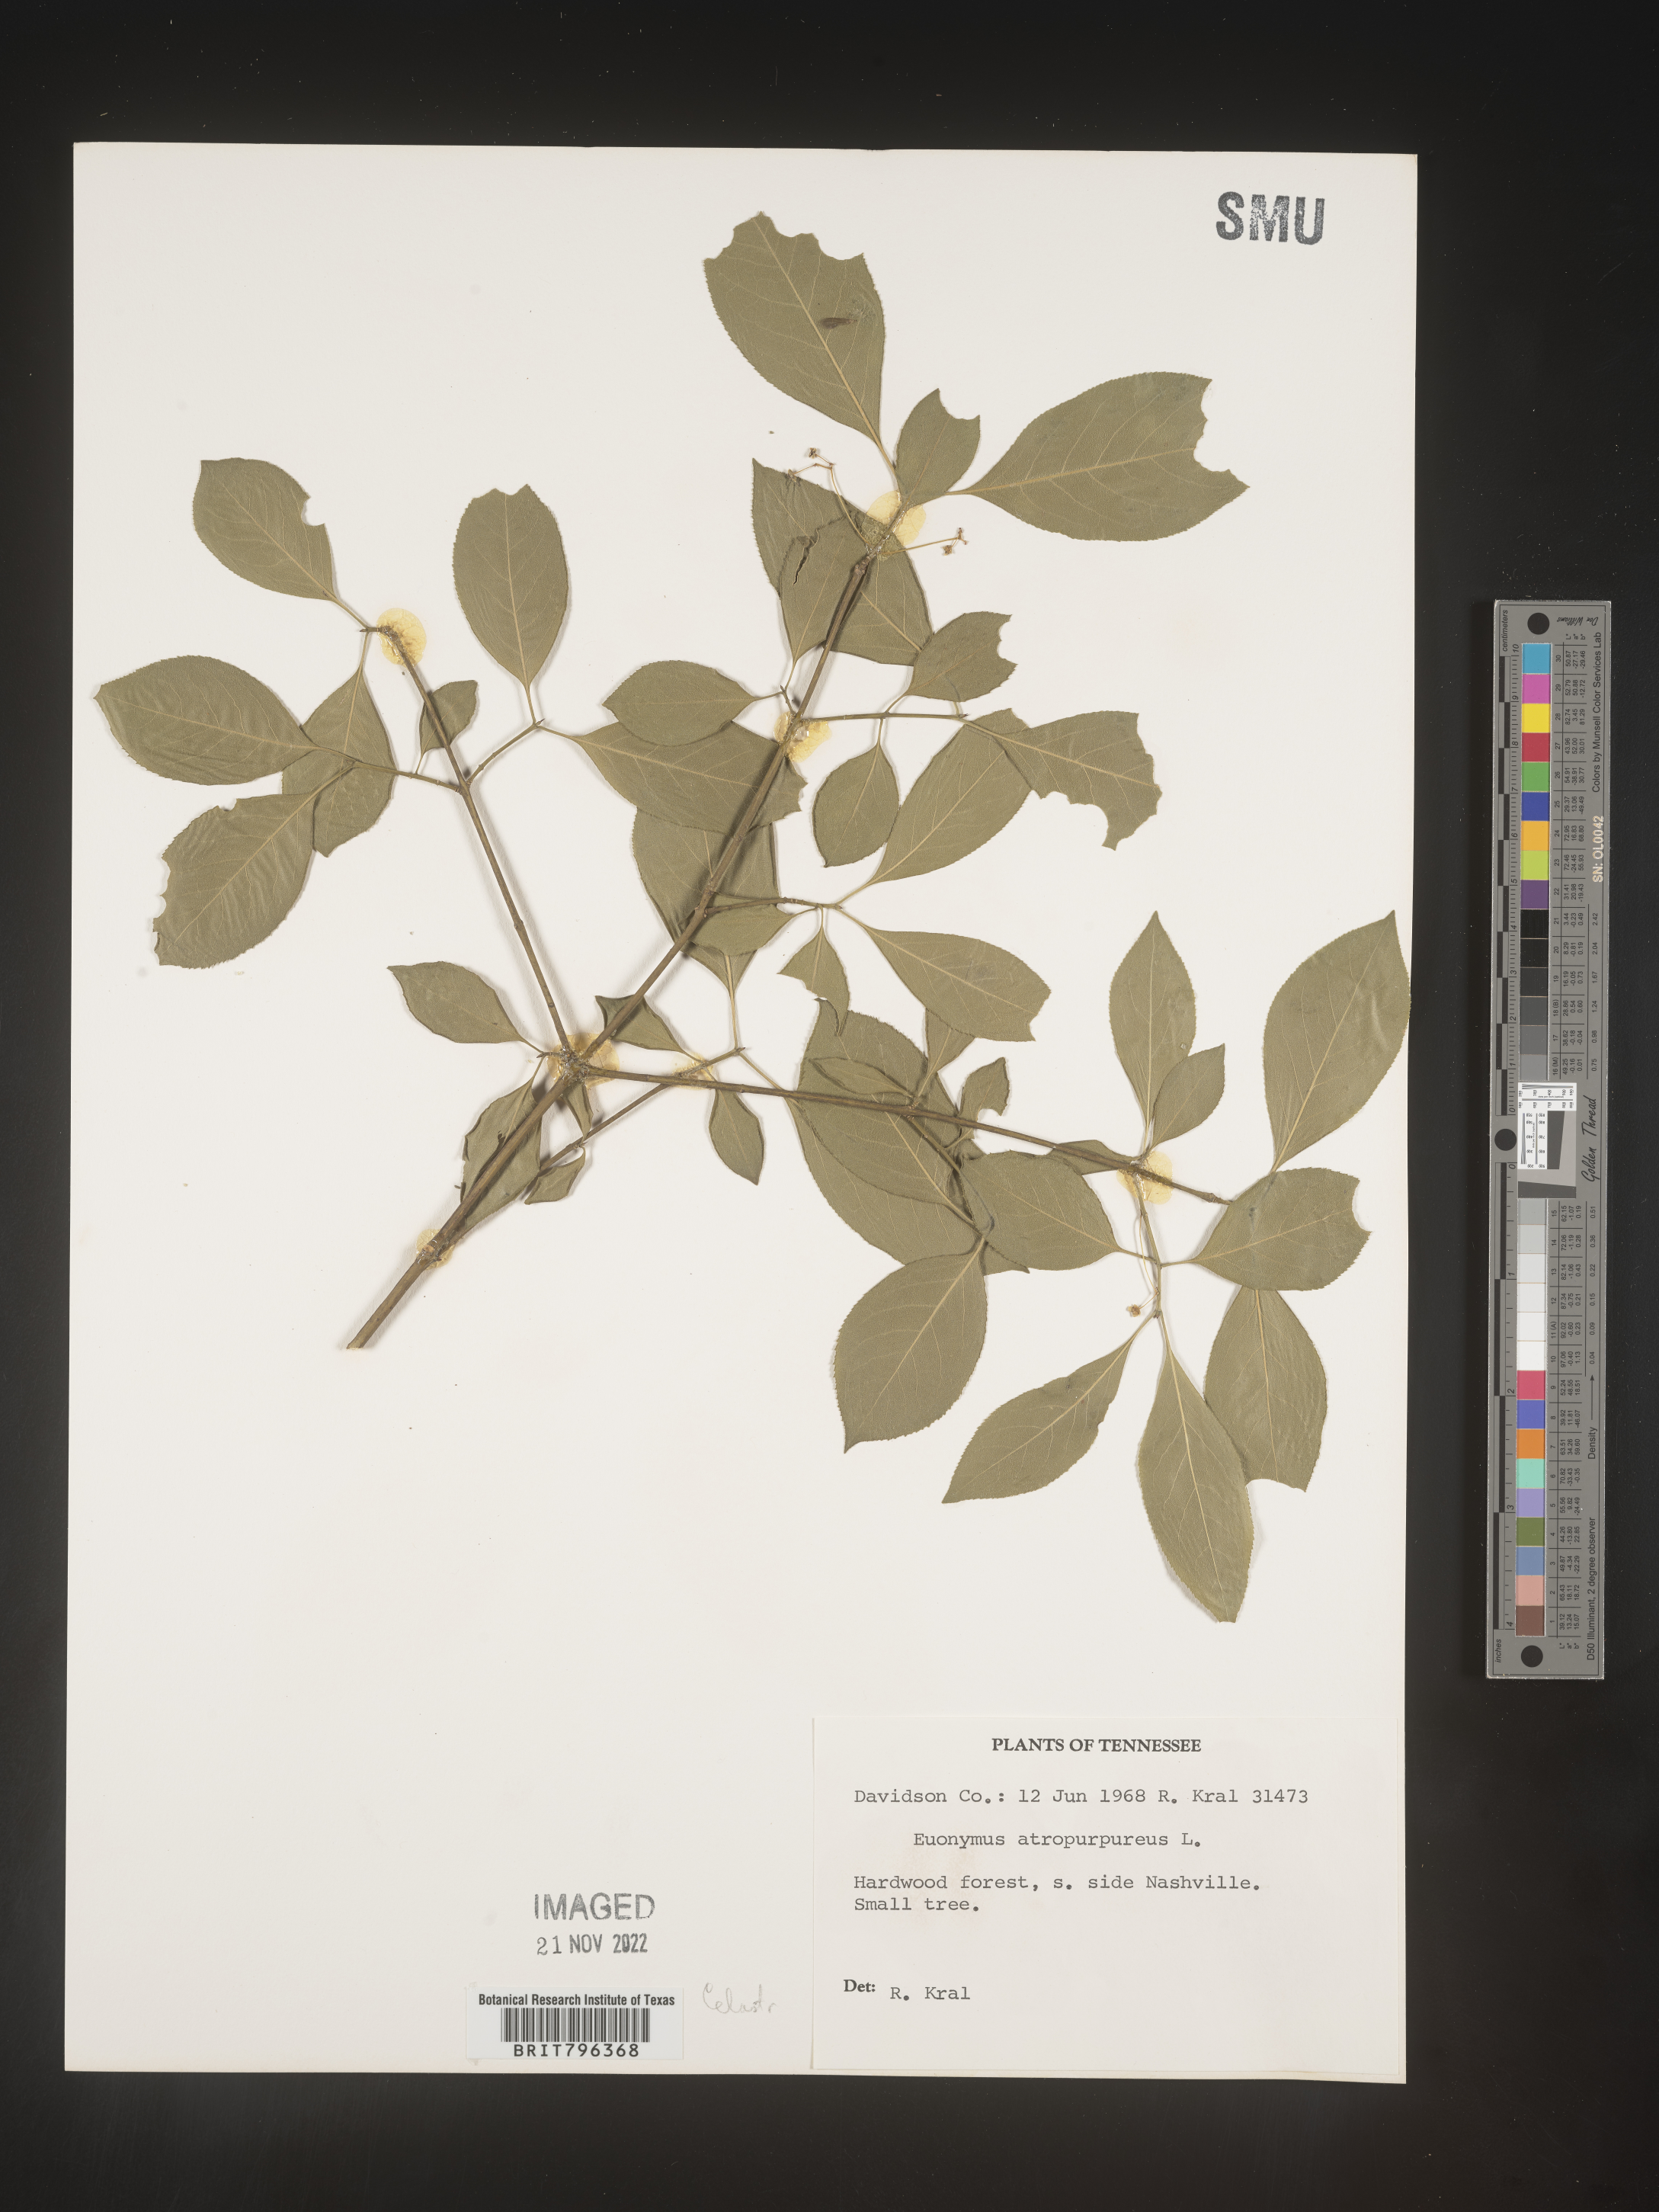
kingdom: Plantae
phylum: Tracheophyta
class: Magnoliopsida
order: Celastrales
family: Celastraceae
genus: Euonymus
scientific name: Euonymus atropurpureus
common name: Eastern wahoo
